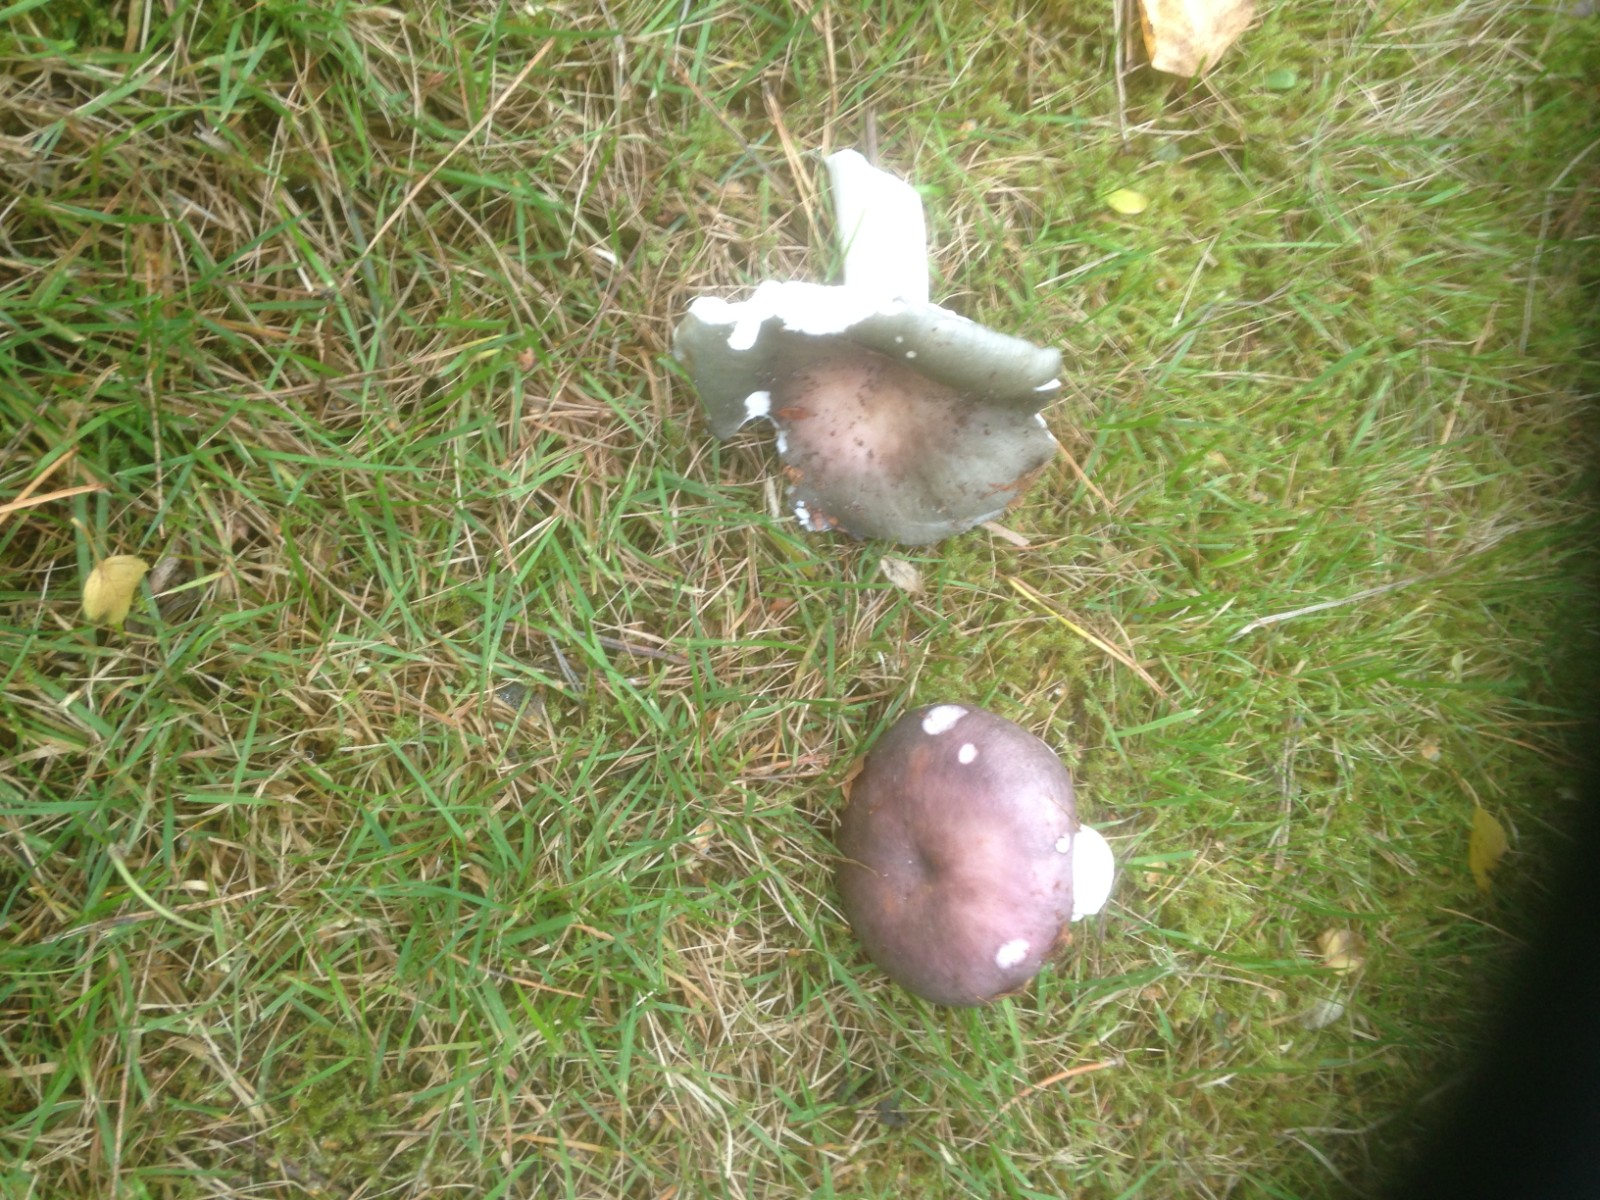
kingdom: Fungi
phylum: Basidiomycota
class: Agaricomycetes
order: Russulales
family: Russulaceae
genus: Russula
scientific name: Russula
